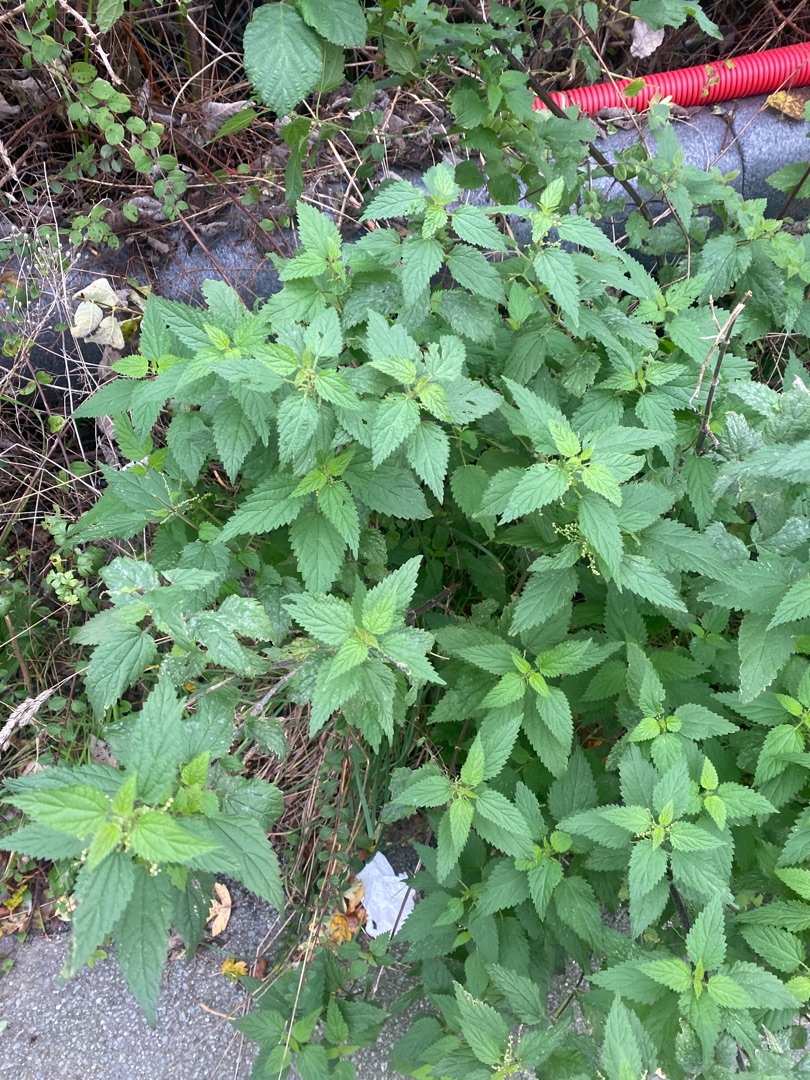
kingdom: Plantae
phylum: Tracheophyta
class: Magnoliopsida
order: Rosales
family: Urticaceae
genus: Urtica
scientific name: Urtica dioica
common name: Stor nælde
